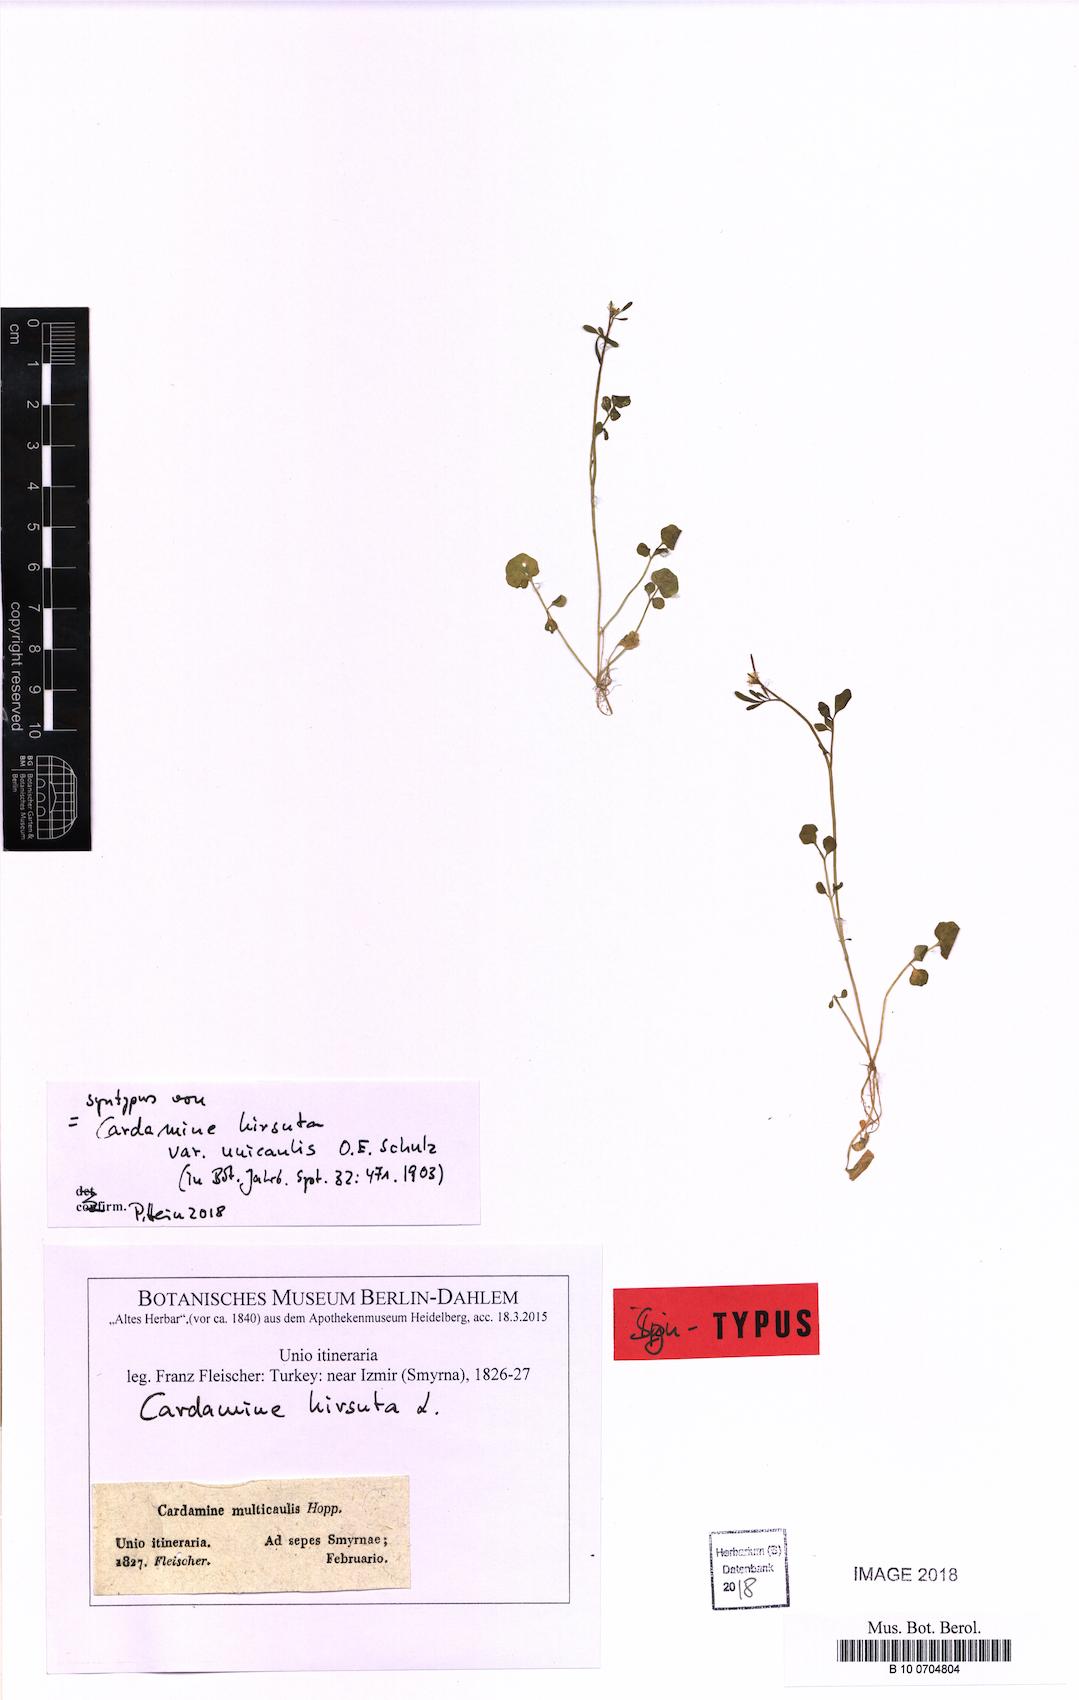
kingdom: Plantae
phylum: Tracheophyta
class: Magnoliopsida
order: Brassicales
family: Brassicaceae
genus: Cardamine
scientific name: Cardamine hirsuta
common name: Hairy bittercress
